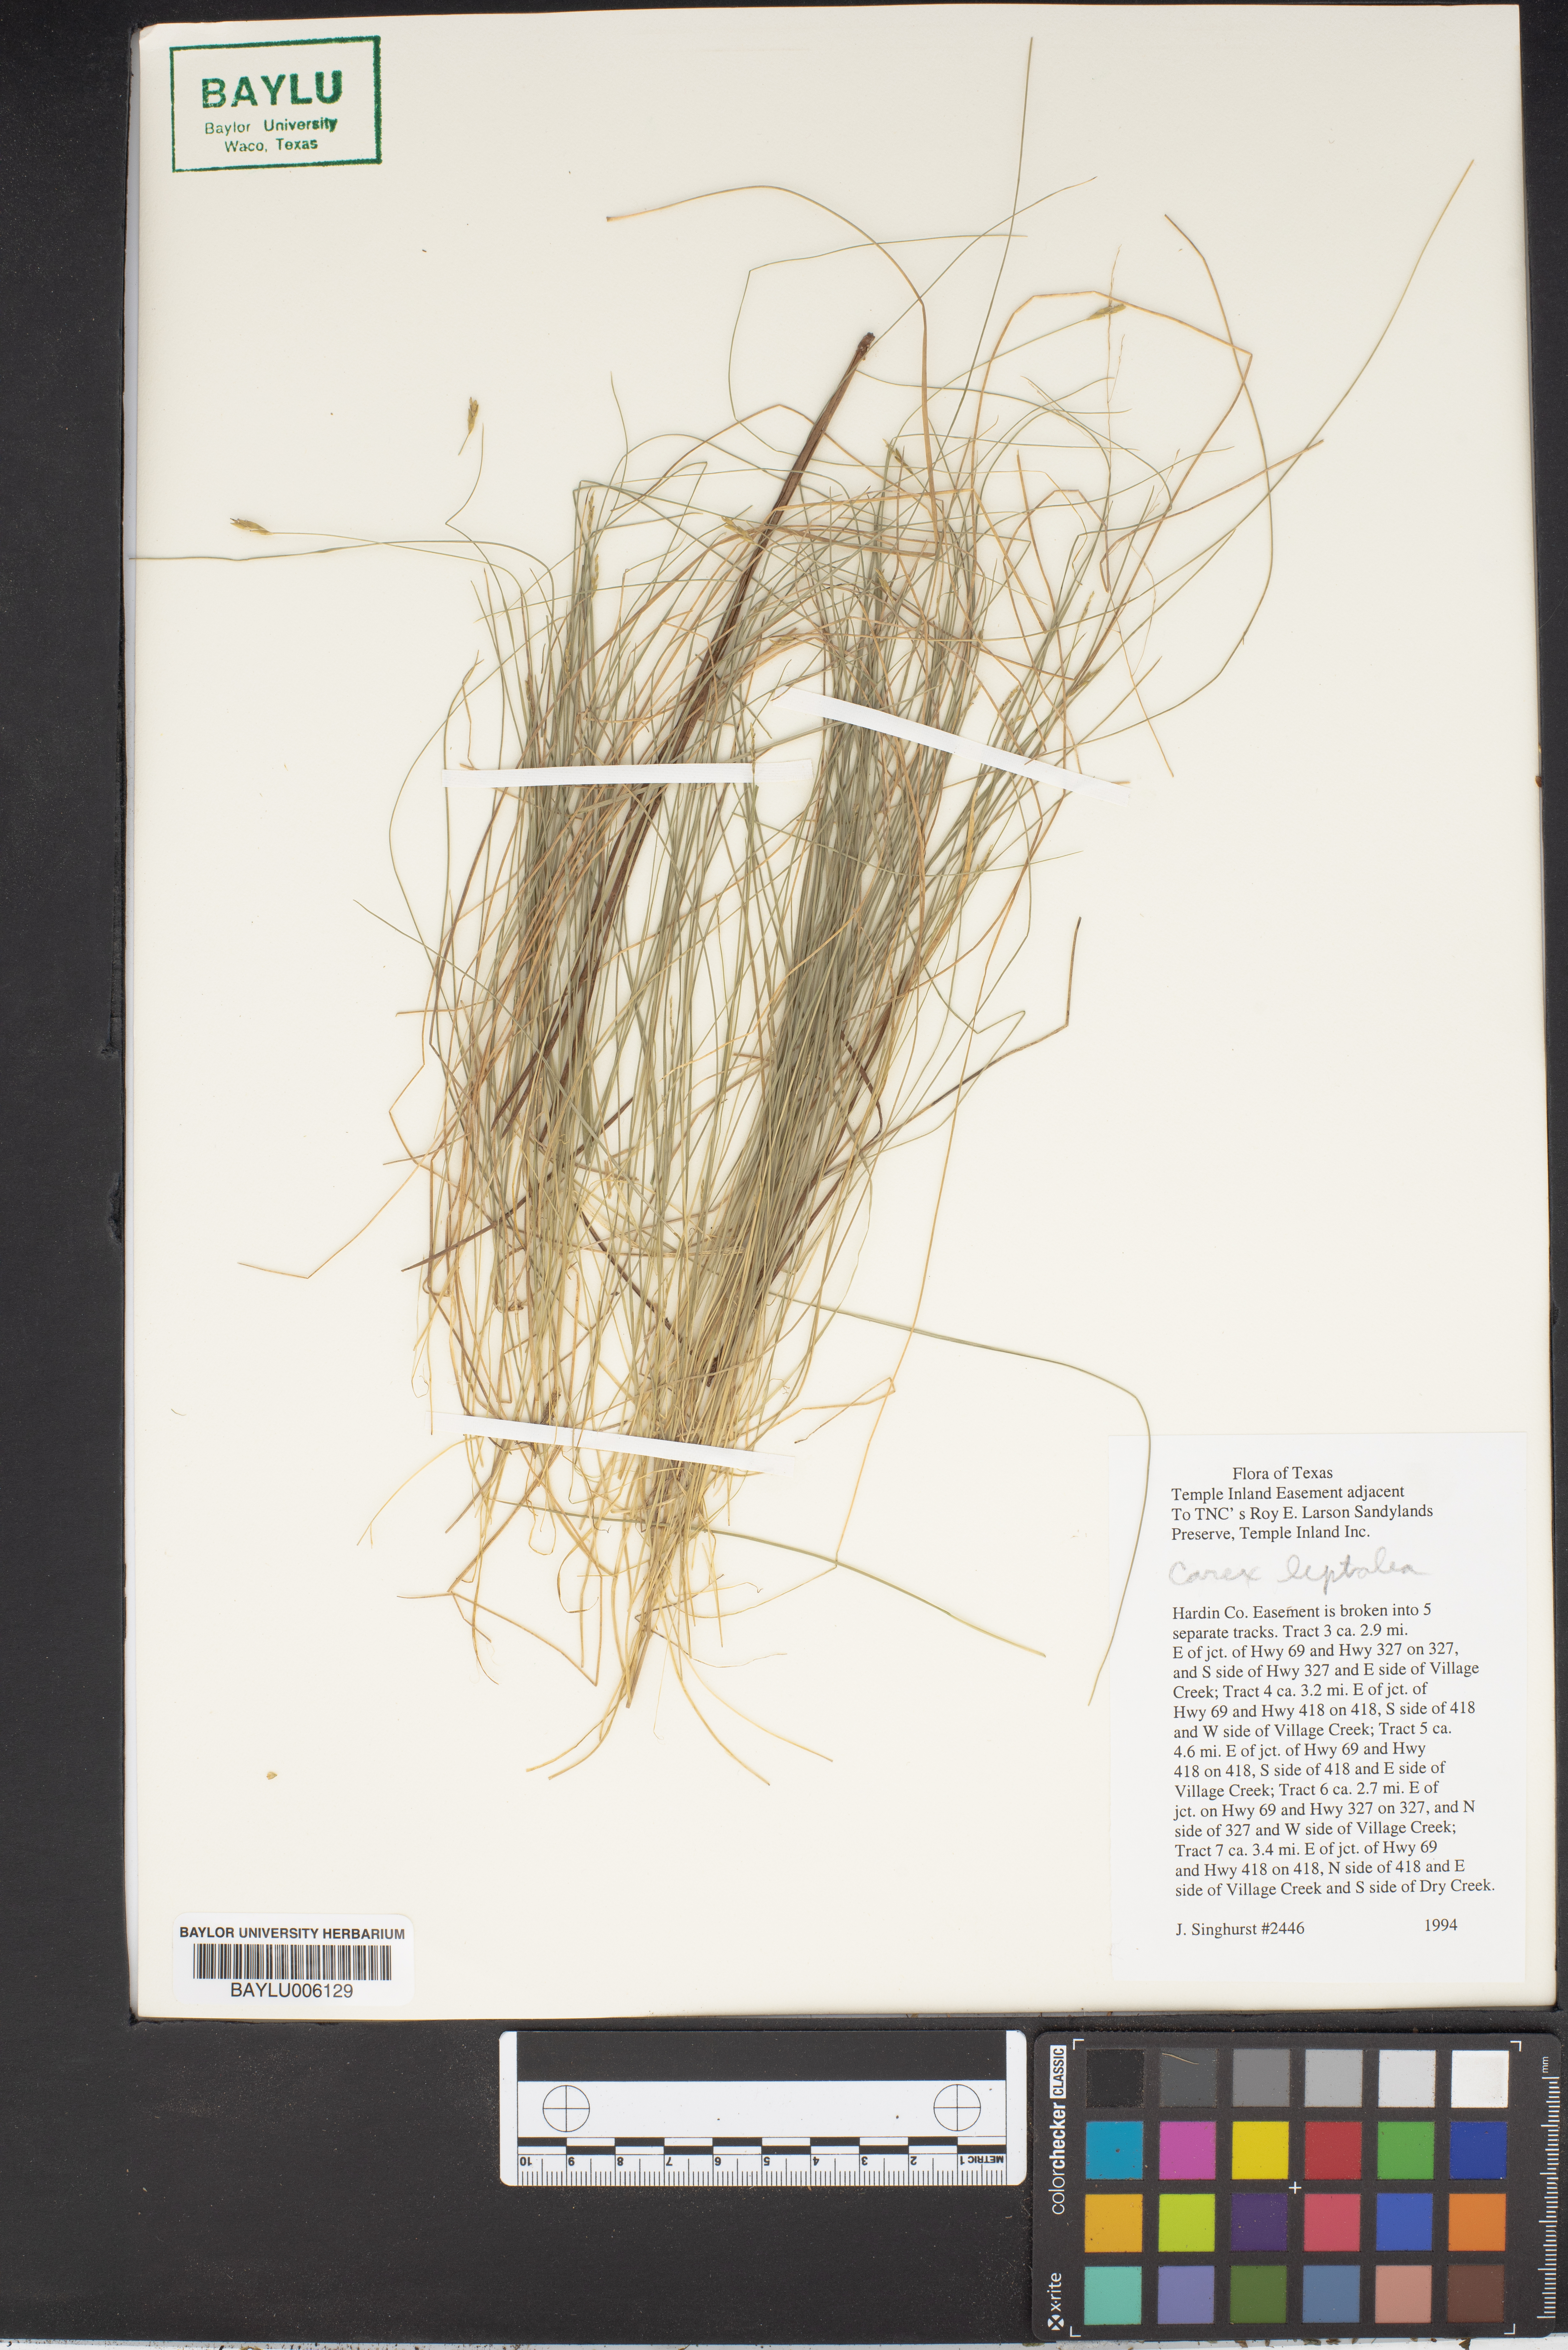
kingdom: Plantae
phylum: Tracheophyta
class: Liliopsida
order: Poales
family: Cyperaceae
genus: Carex
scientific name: Carex leptalea
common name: Bristly-stalked sedge
